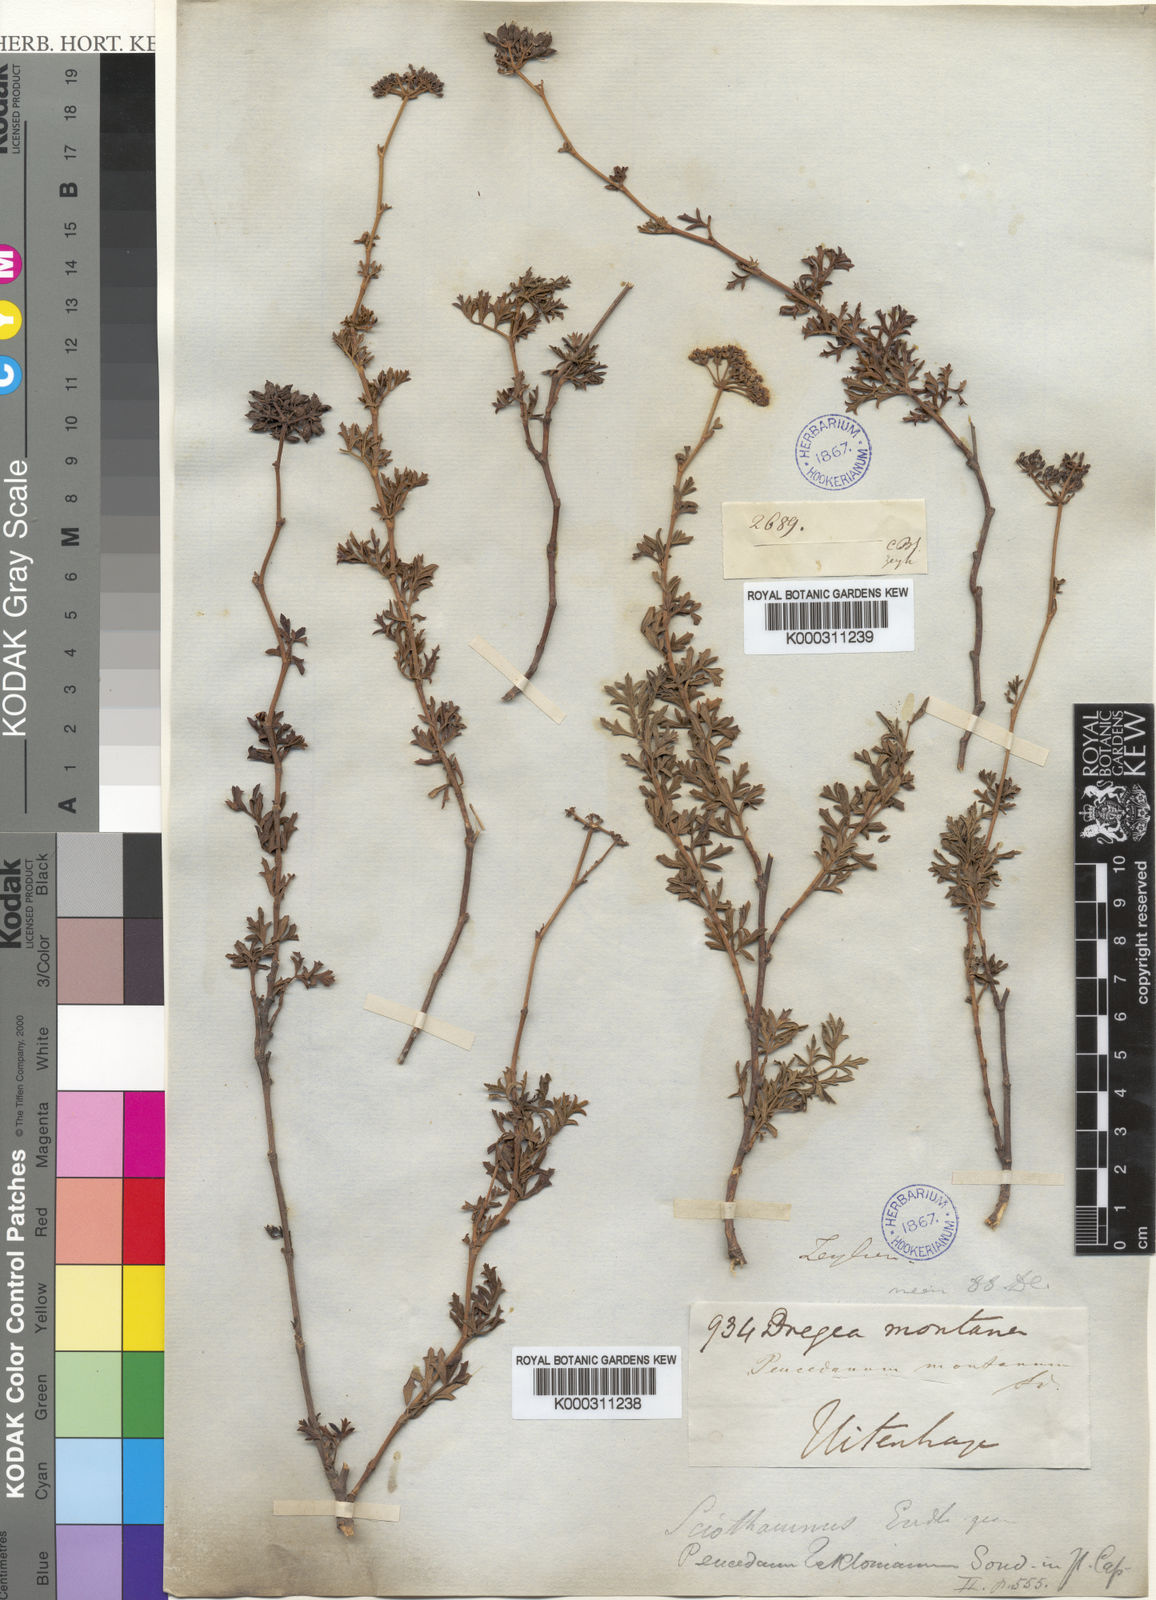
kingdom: Plantae
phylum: Tracheophyta
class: Magnoliopsida
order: Apiales
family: Apiaceae
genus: Peucedanum
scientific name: Peucedanum
